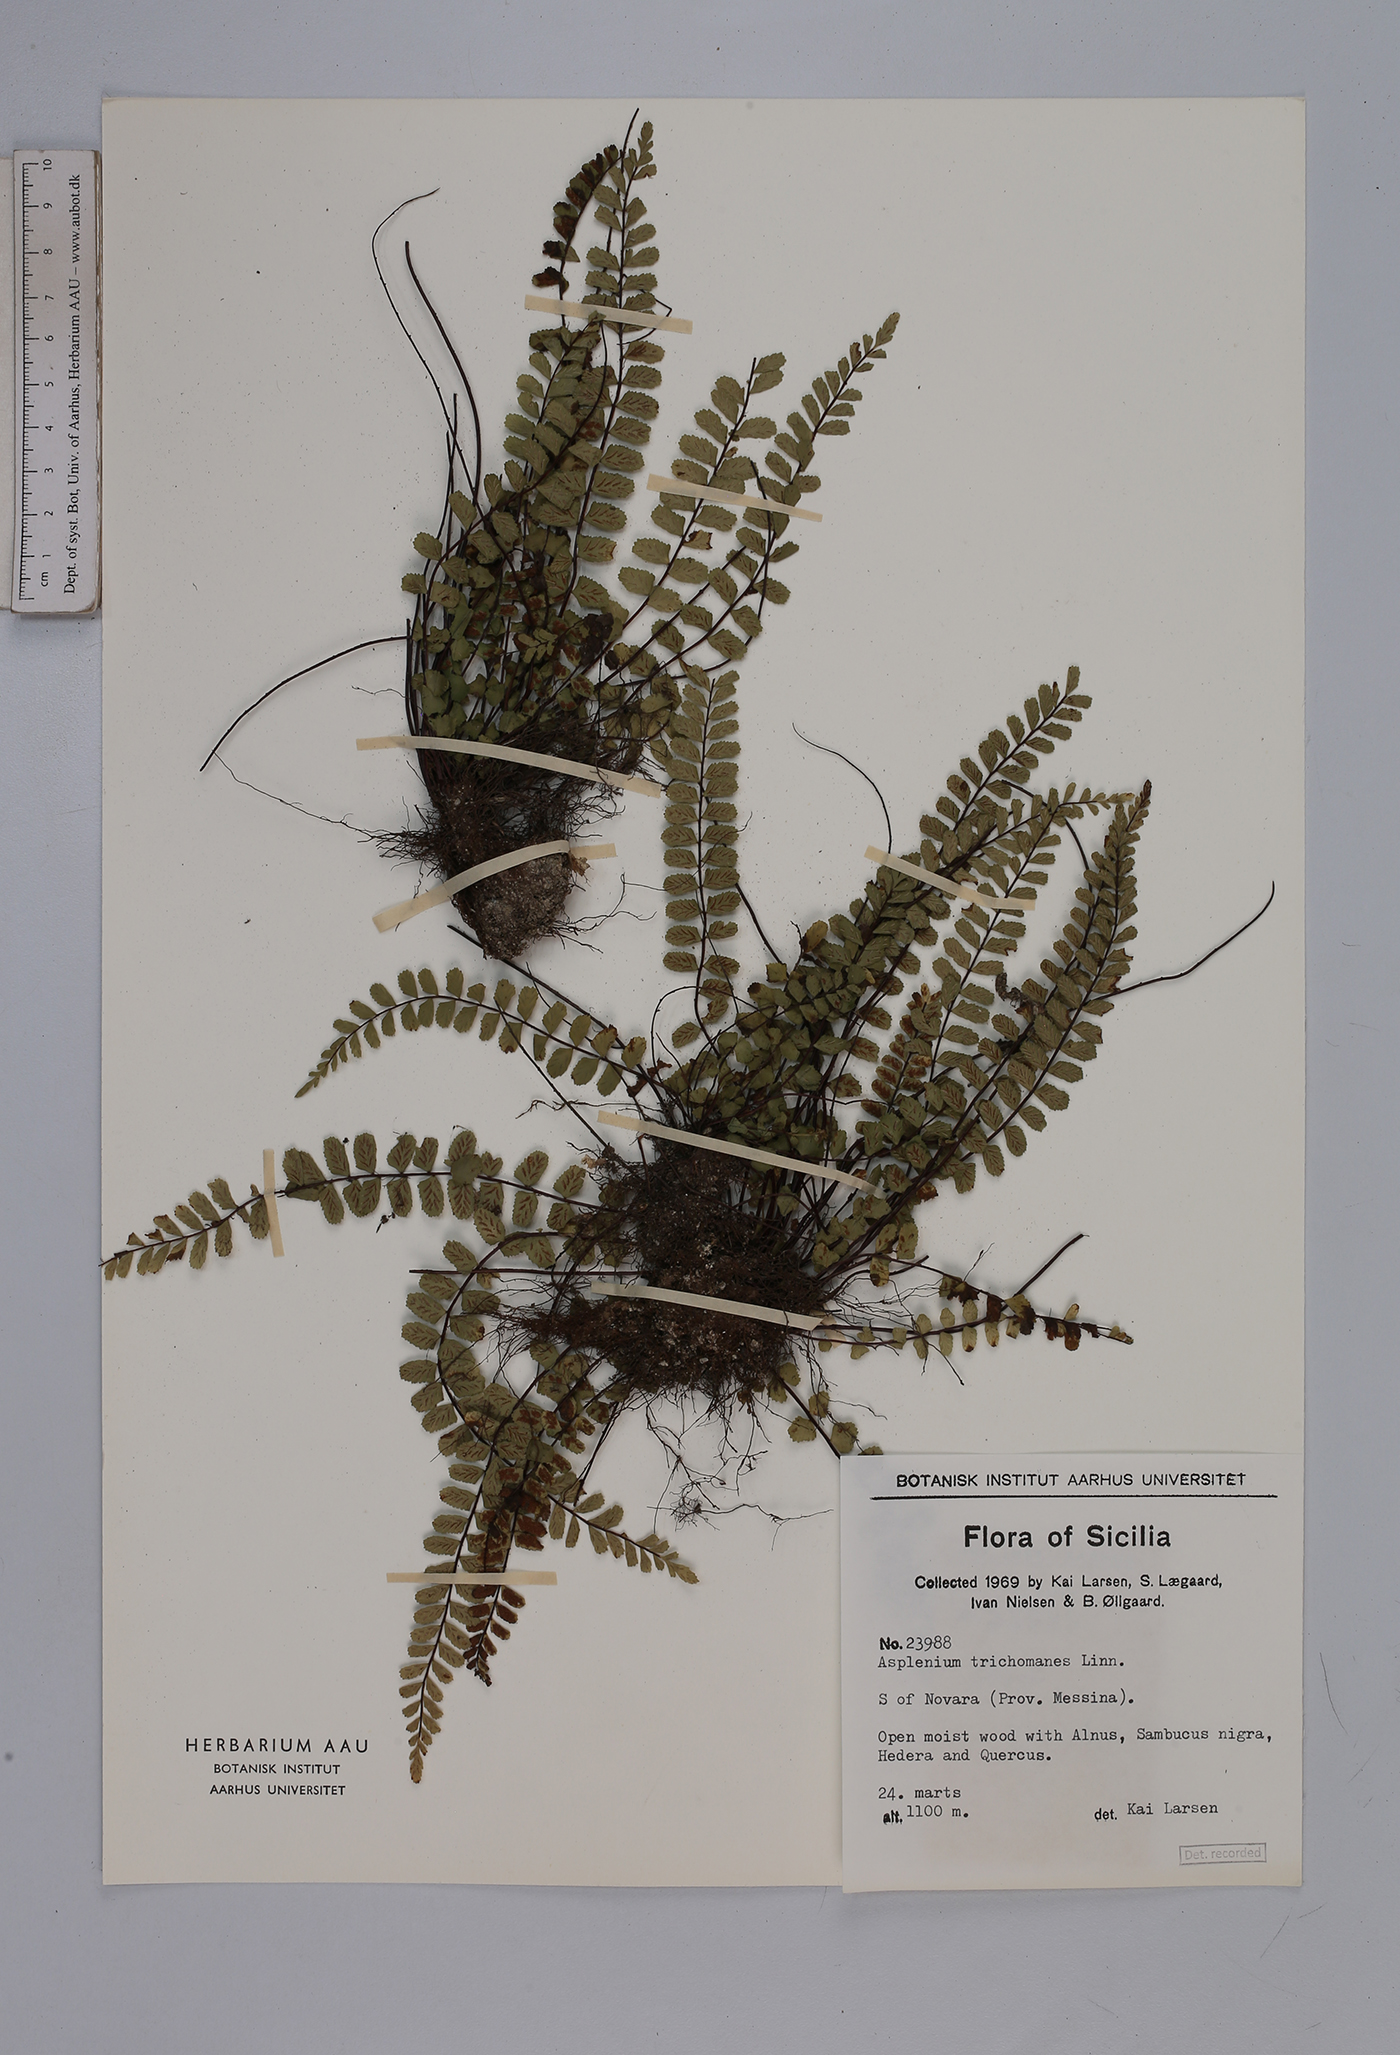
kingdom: Plantae
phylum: Tracheophyta
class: Polypodiopsida
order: Polypodiales
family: Aspleniaceae
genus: Asplenium
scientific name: Asplenium trichomanes
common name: Maidenhair spleenwort
